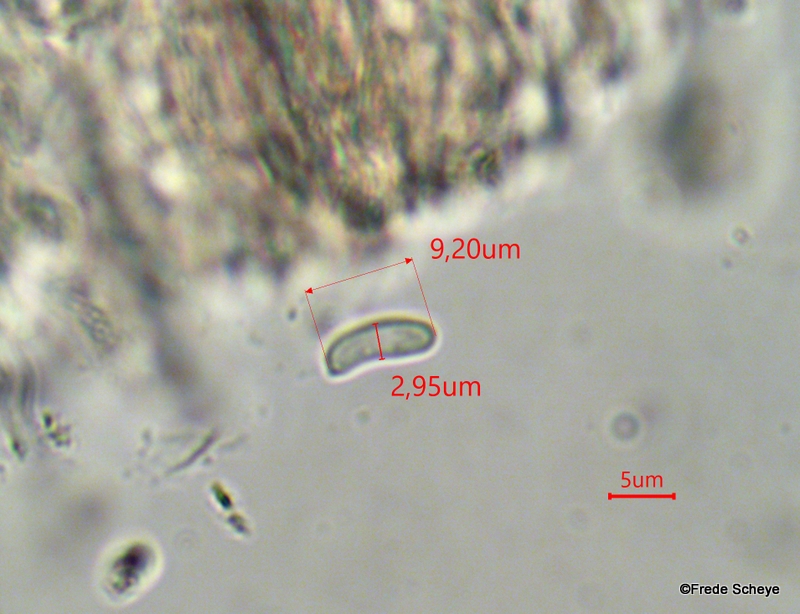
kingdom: Fungi
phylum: Basidiomycota
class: Agaricomycetes
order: Russulales
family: Peniophoraceae
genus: Peniophora
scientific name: Peniophora quercina
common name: ege-voksskind
